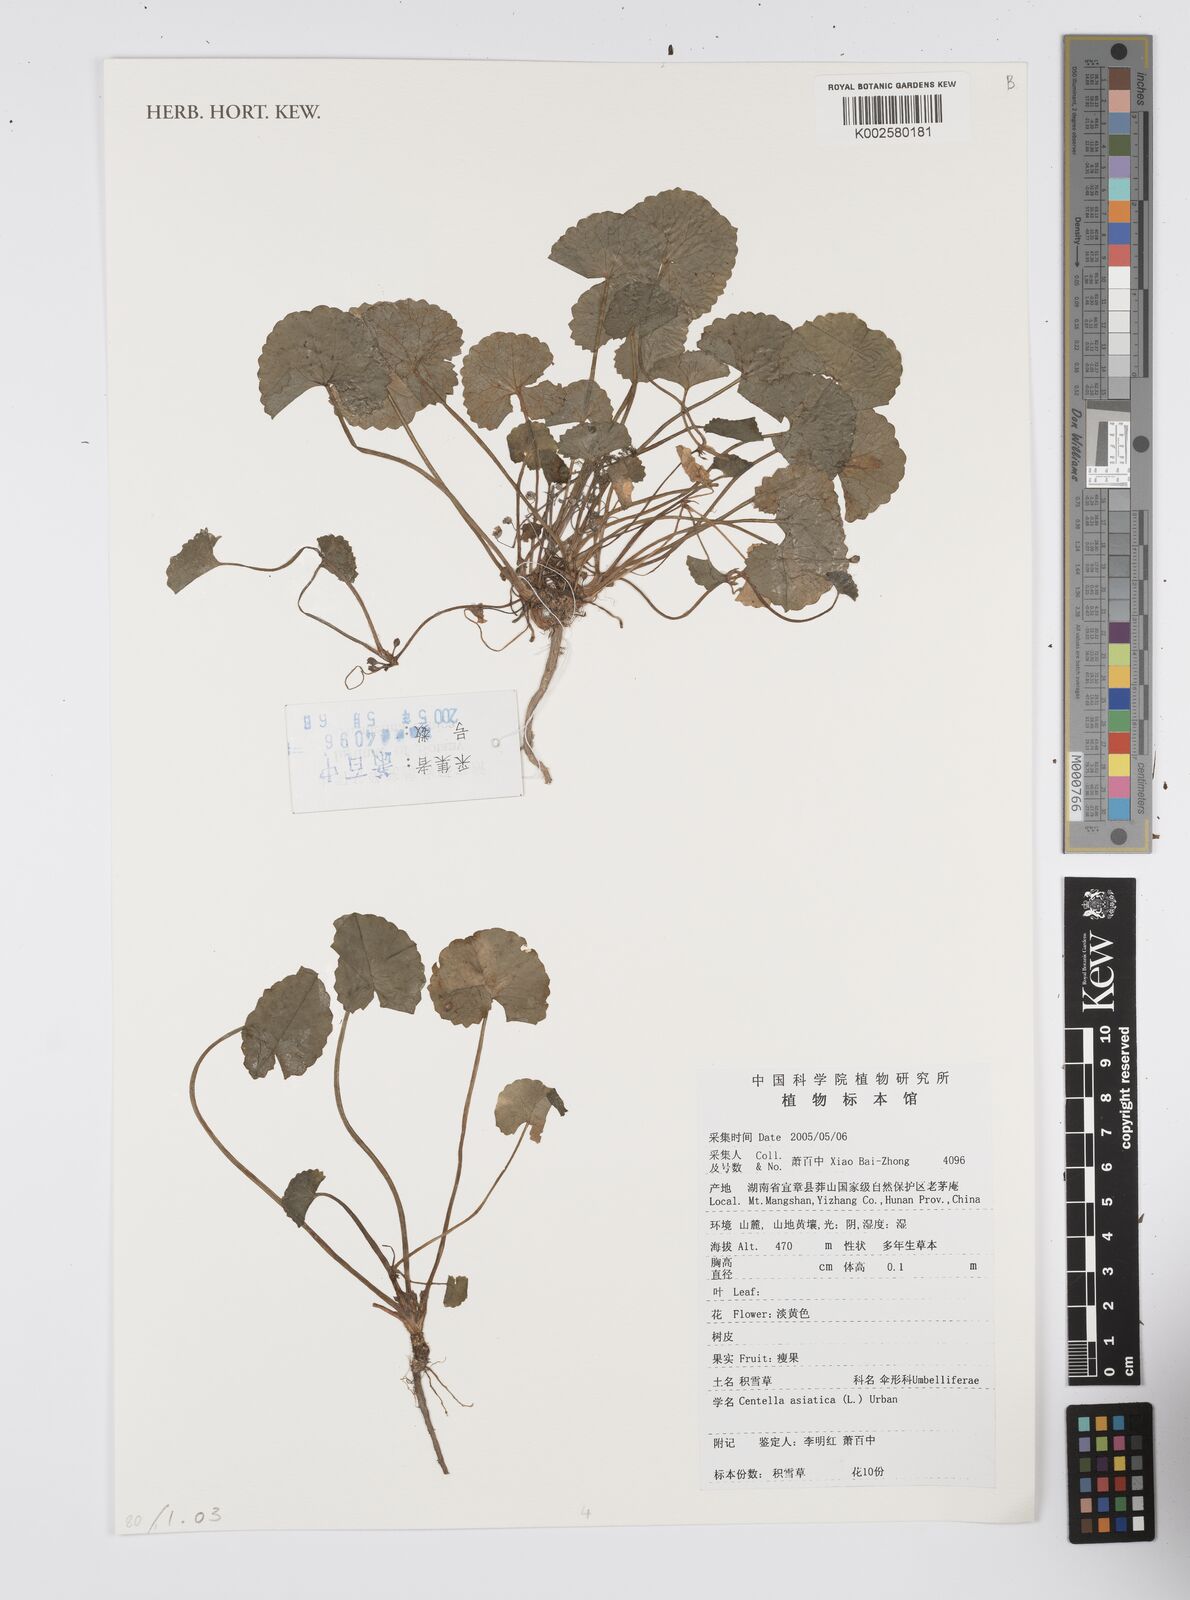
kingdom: Plantae
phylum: Tracheophyta
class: Magnoliopsida
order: Apiales
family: Apiaceae
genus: Centella
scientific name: Centella asiatica
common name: Spadeleaf
